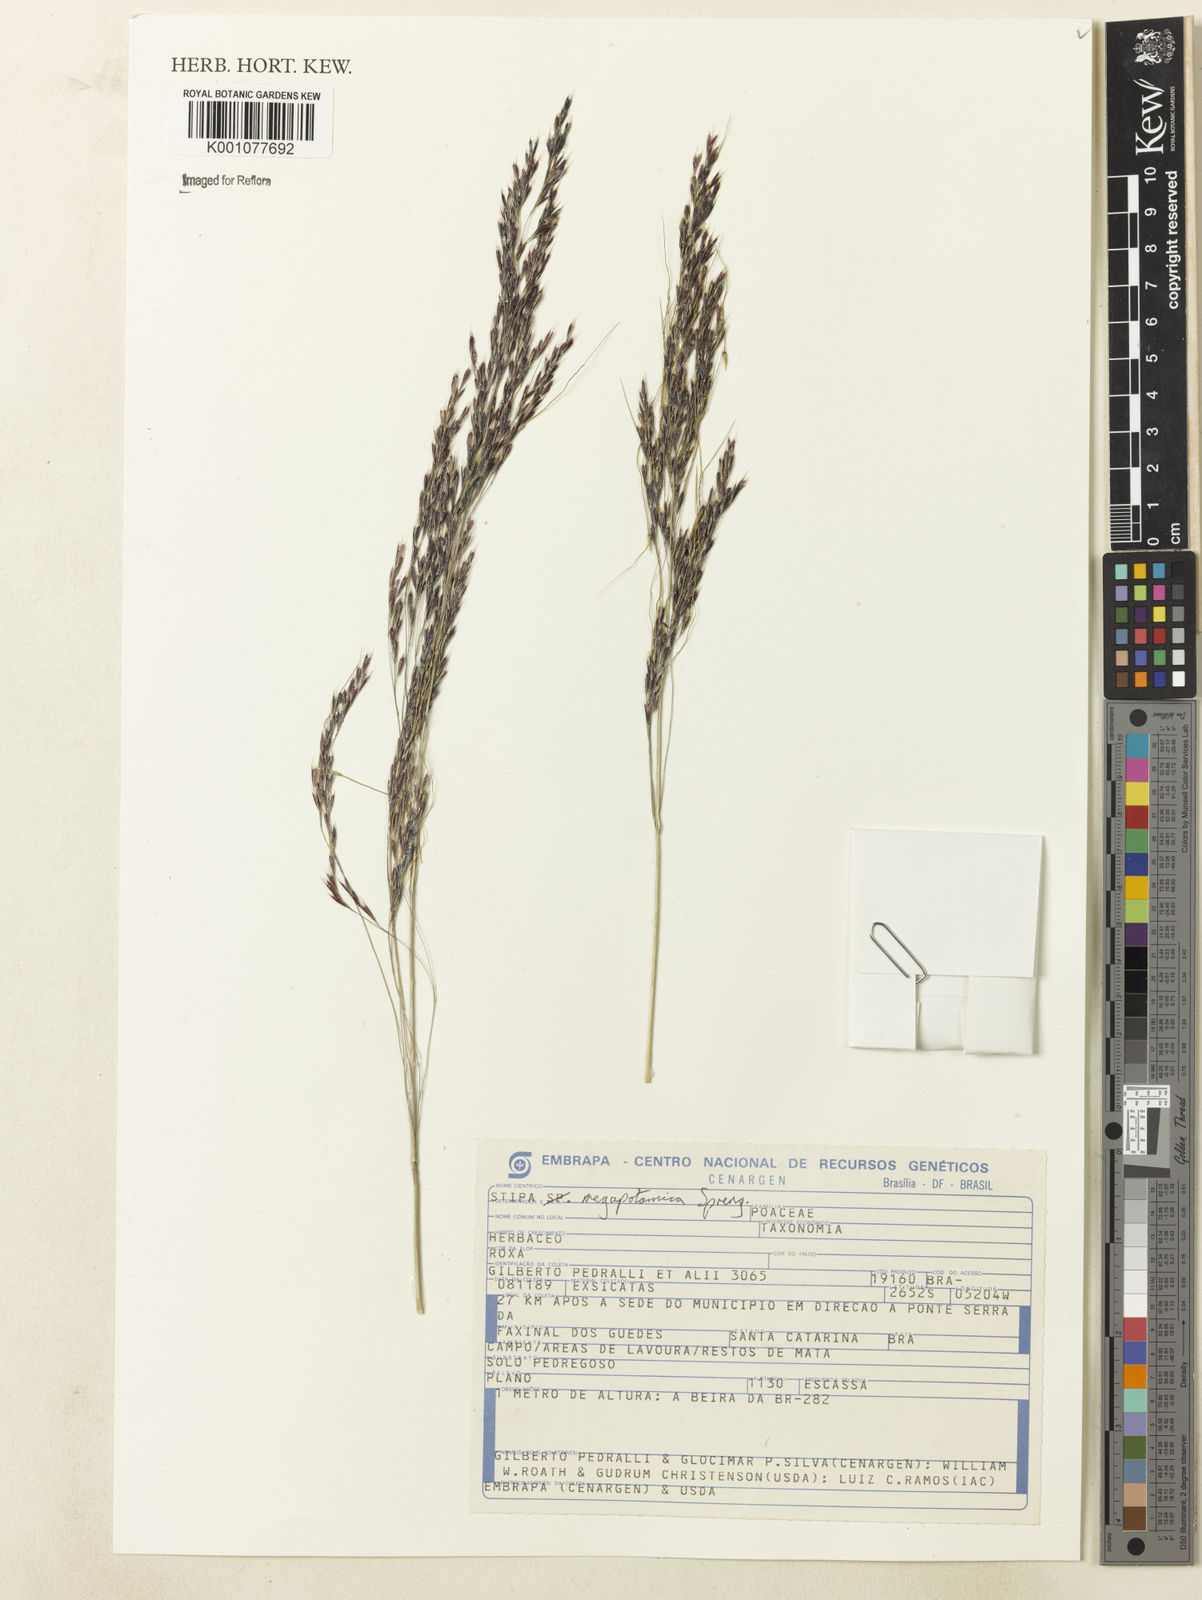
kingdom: Plantae
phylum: Tracheophyta
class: Liliopsida
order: Poales
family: Poaceae
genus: Jarava
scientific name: Jarava filifolia
